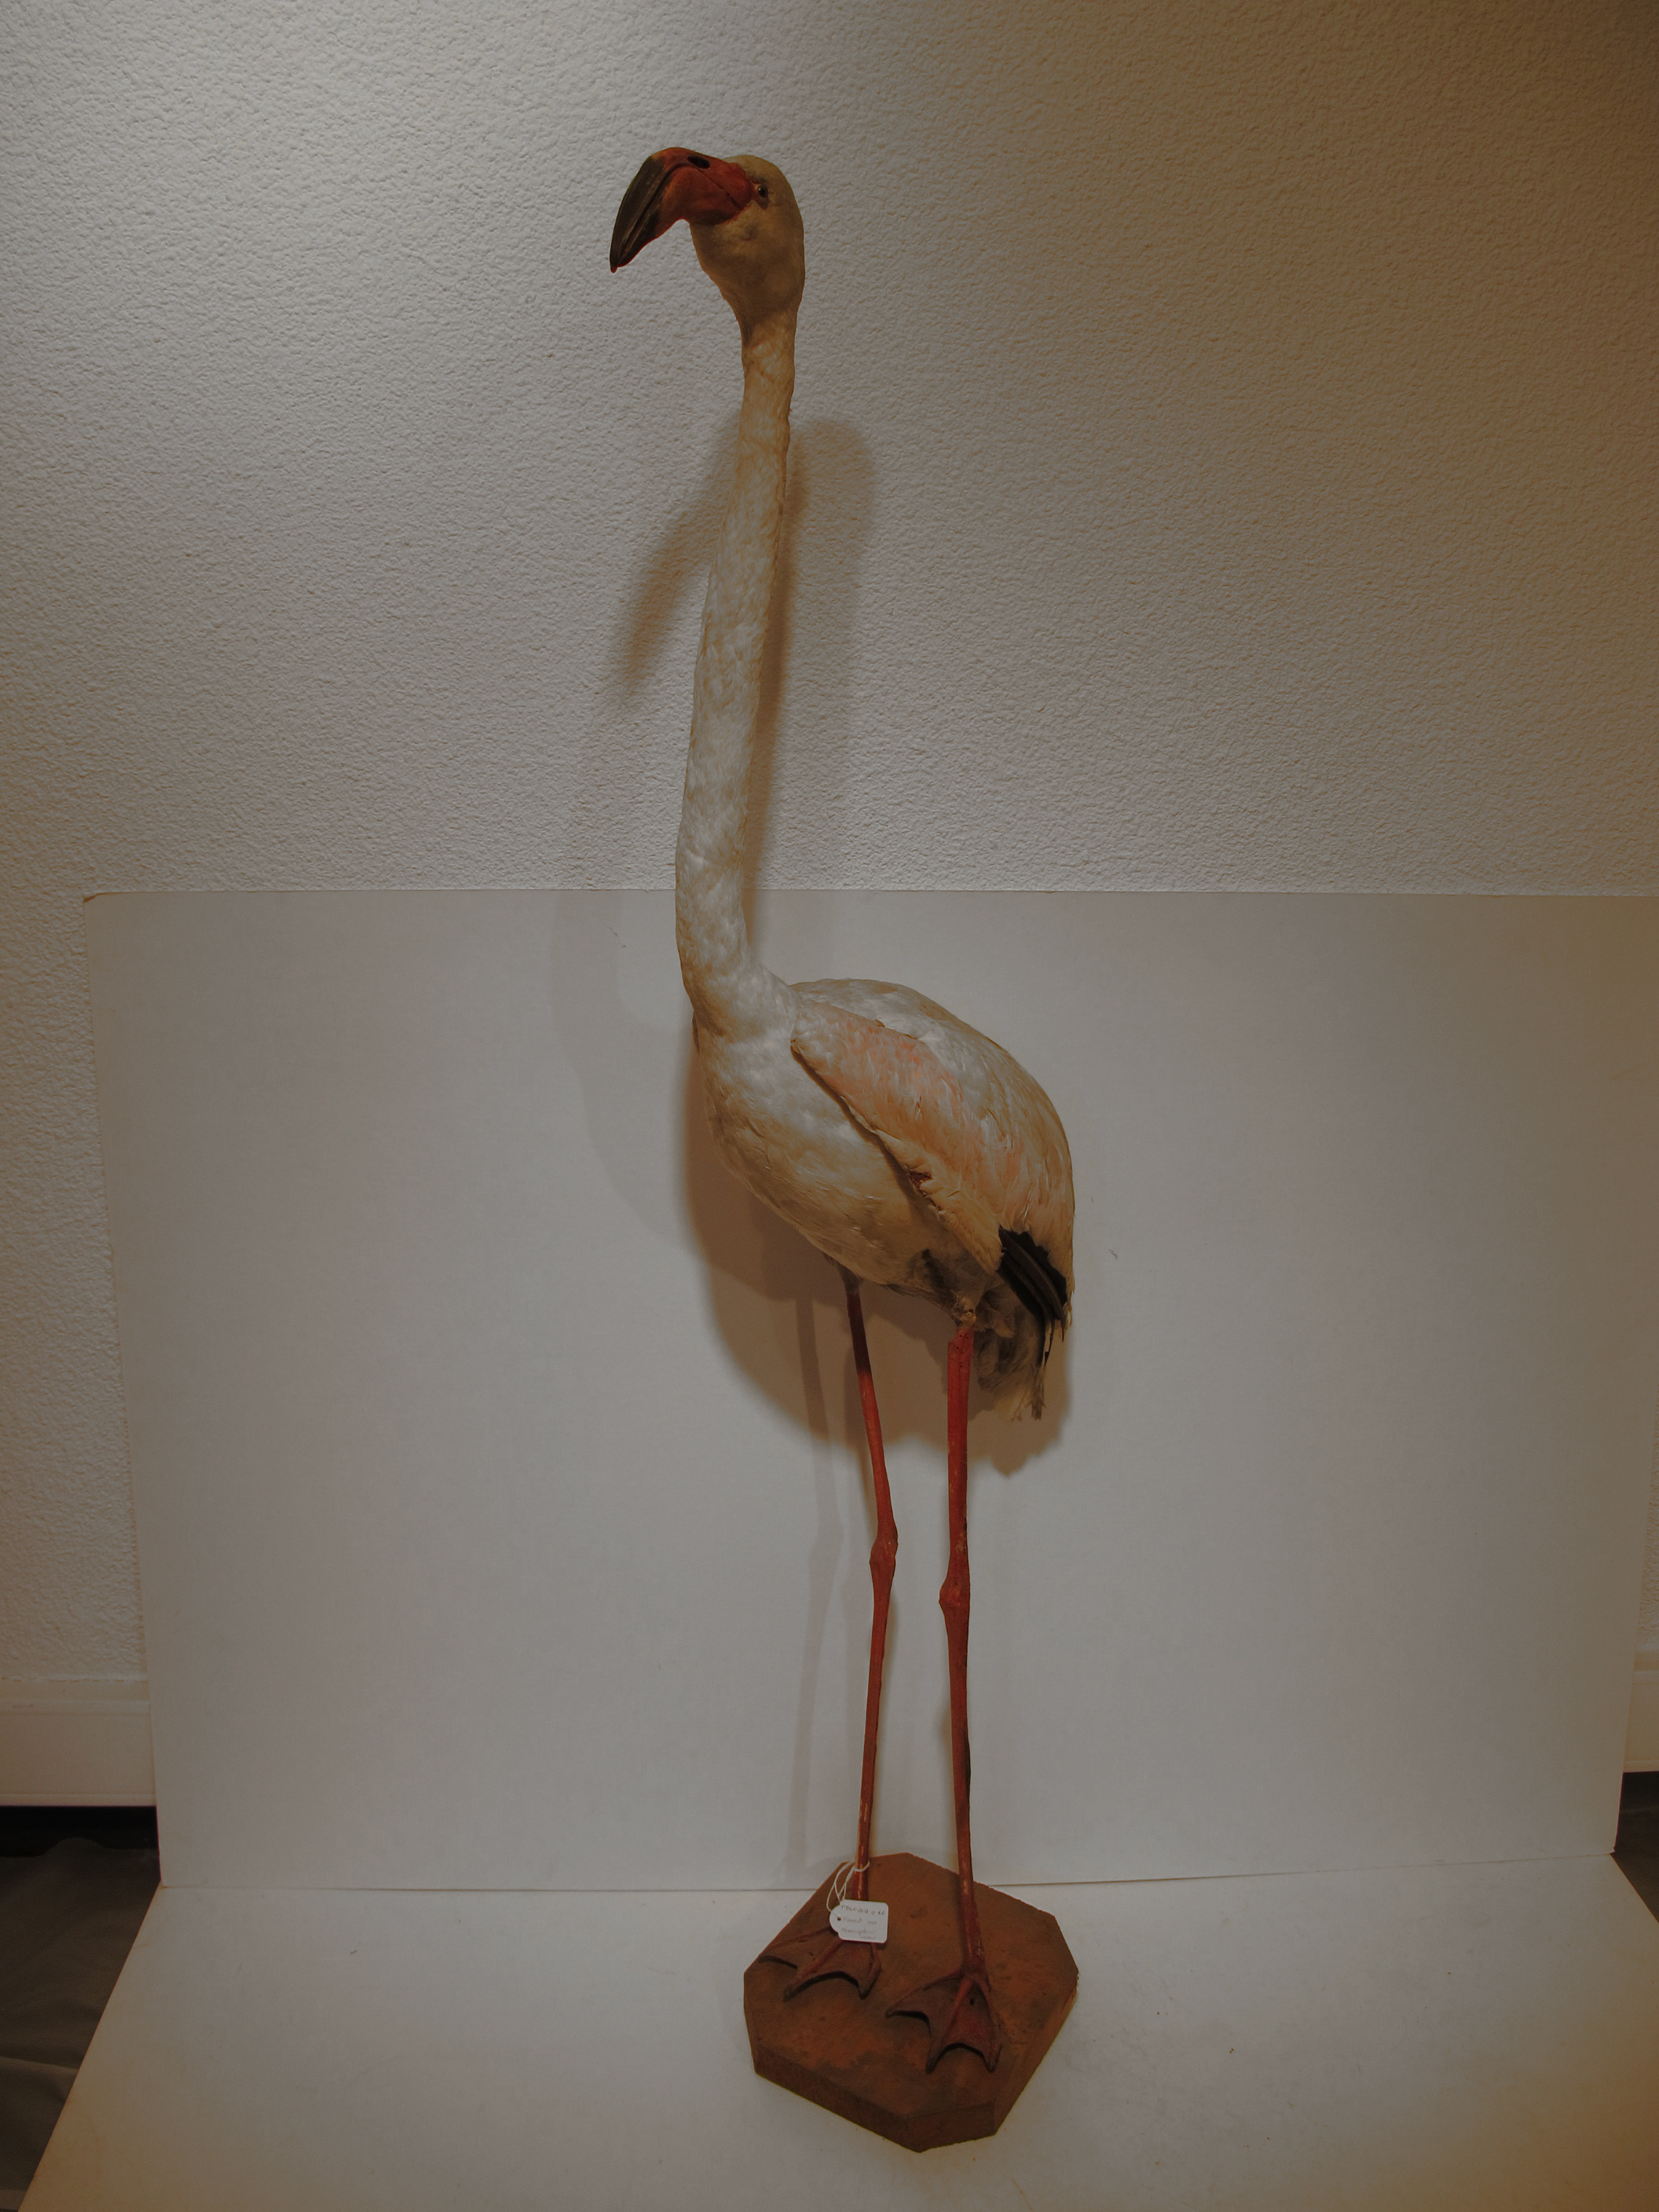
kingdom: Animalia
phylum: Chordata
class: Aves
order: Phoenicopteriformes
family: Phoenicopteridae
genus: Phoenicopterus
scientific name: Phoenicopterus roseus
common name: Greater Flamingo
